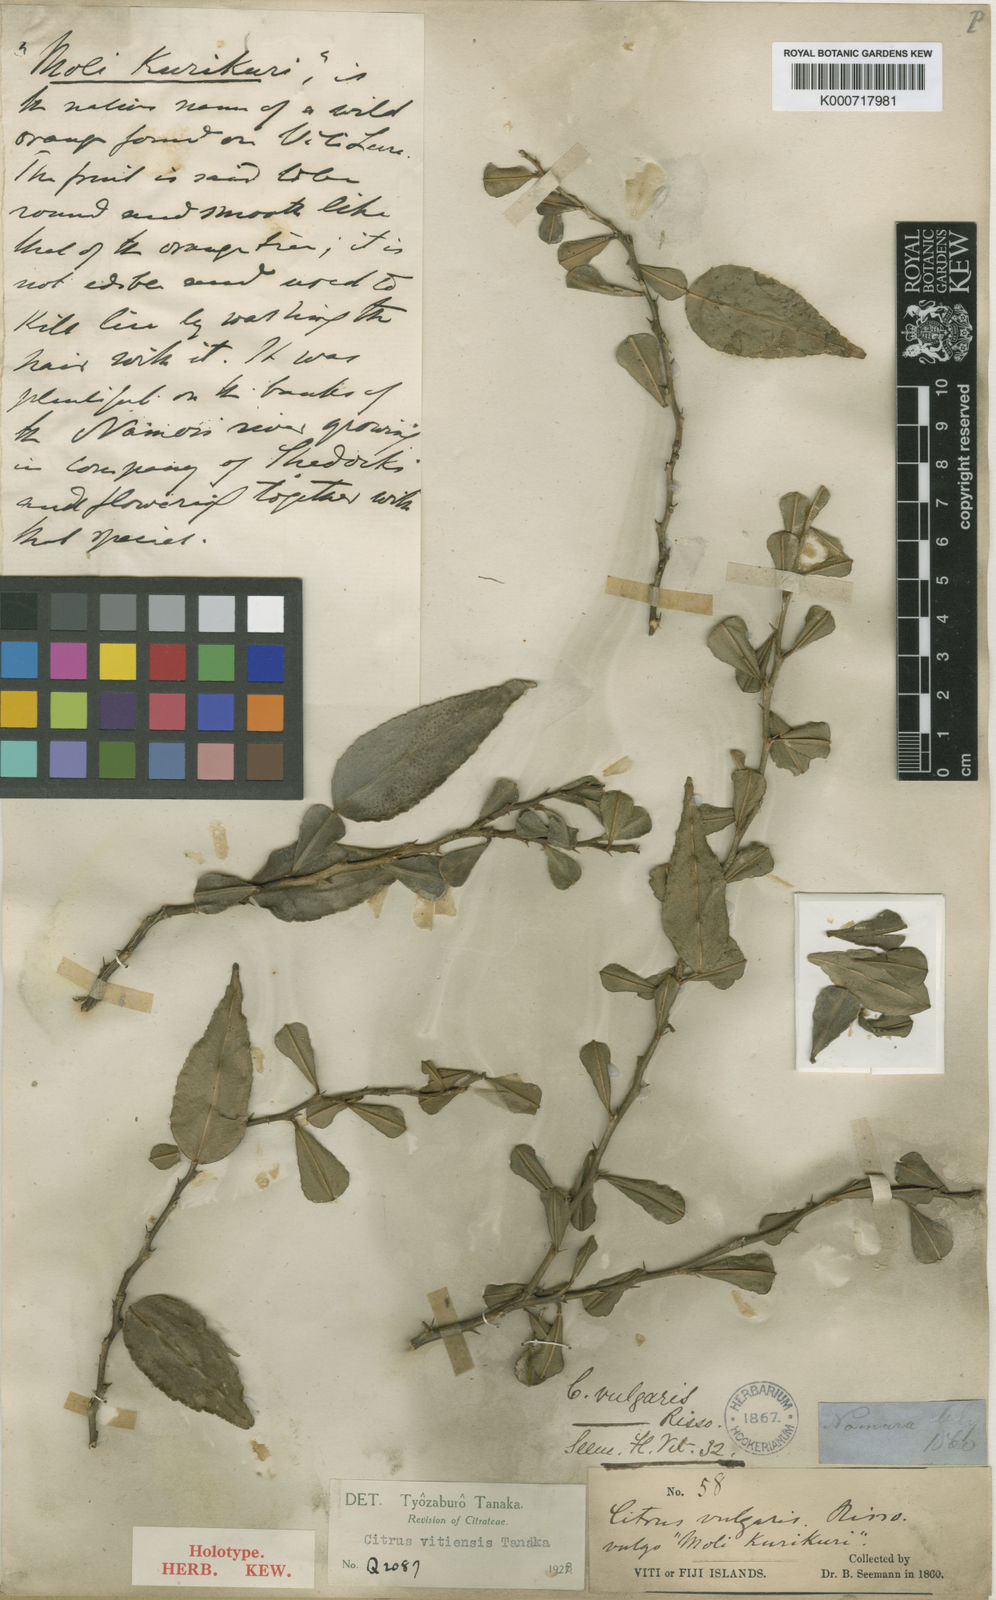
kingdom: Plantae
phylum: Tracheophyta
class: Magnoliopsida
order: Sapindales
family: Rutaceae
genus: Citrus
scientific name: Citrus hystrix
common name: Kaffir-lime
